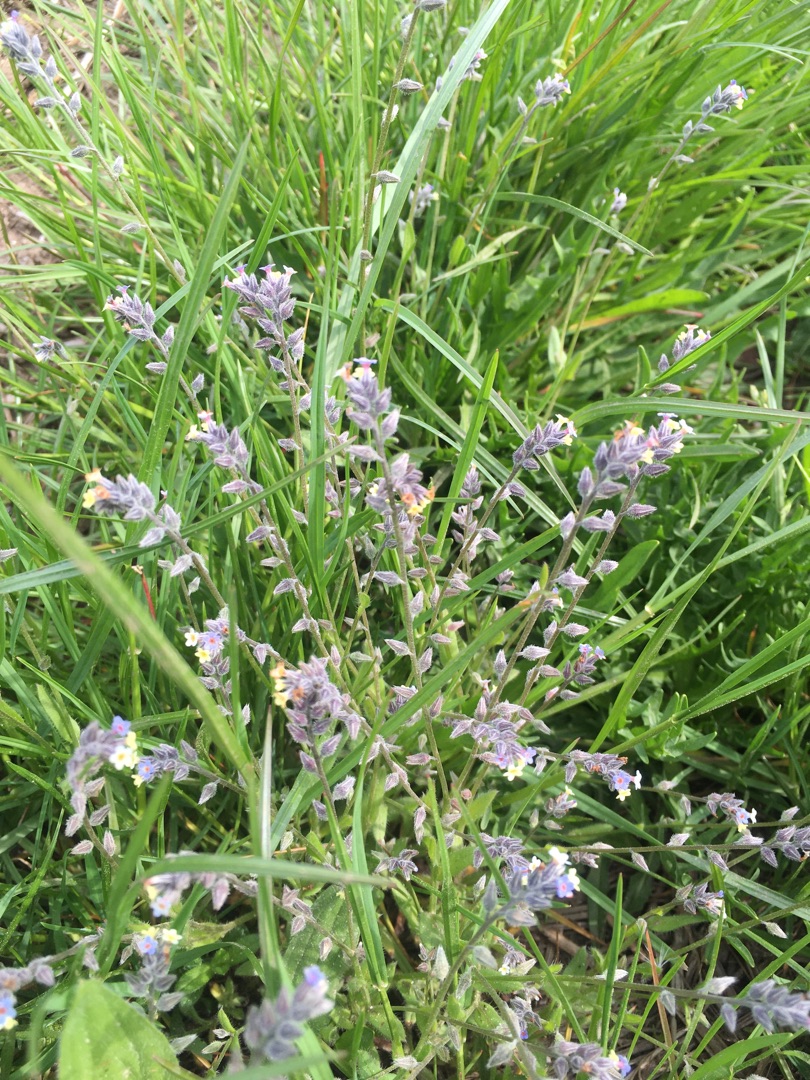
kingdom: Plantae
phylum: Tracheophyta
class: Magnoliopsida
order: Boraginales
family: Boraginaceae
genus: Myosotis
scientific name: Myosotis discolor
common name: Forskelligfarvet forglemmigej
